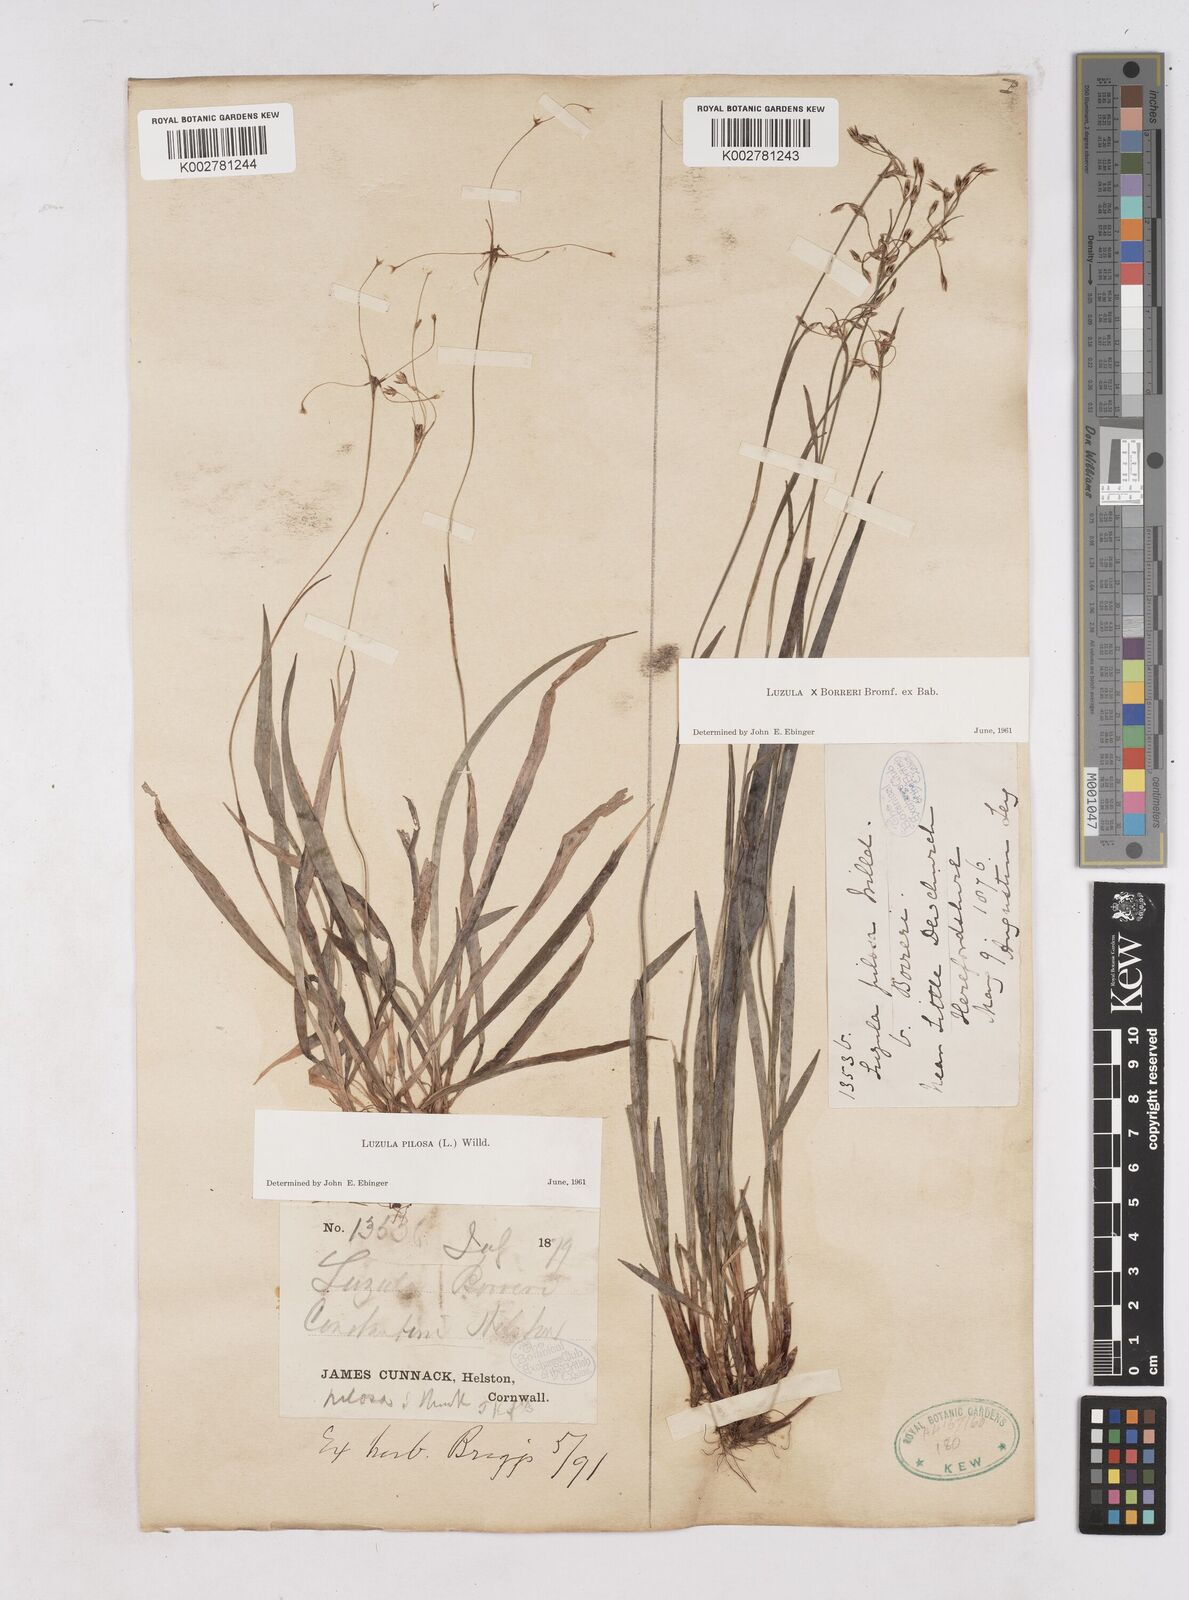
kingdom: Plantae
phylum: Tracheophyta
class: Liliopsida
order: Poales
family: Juncaceae
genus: Luzula
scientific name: Luzula forsteri
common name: Southern wood-rush
